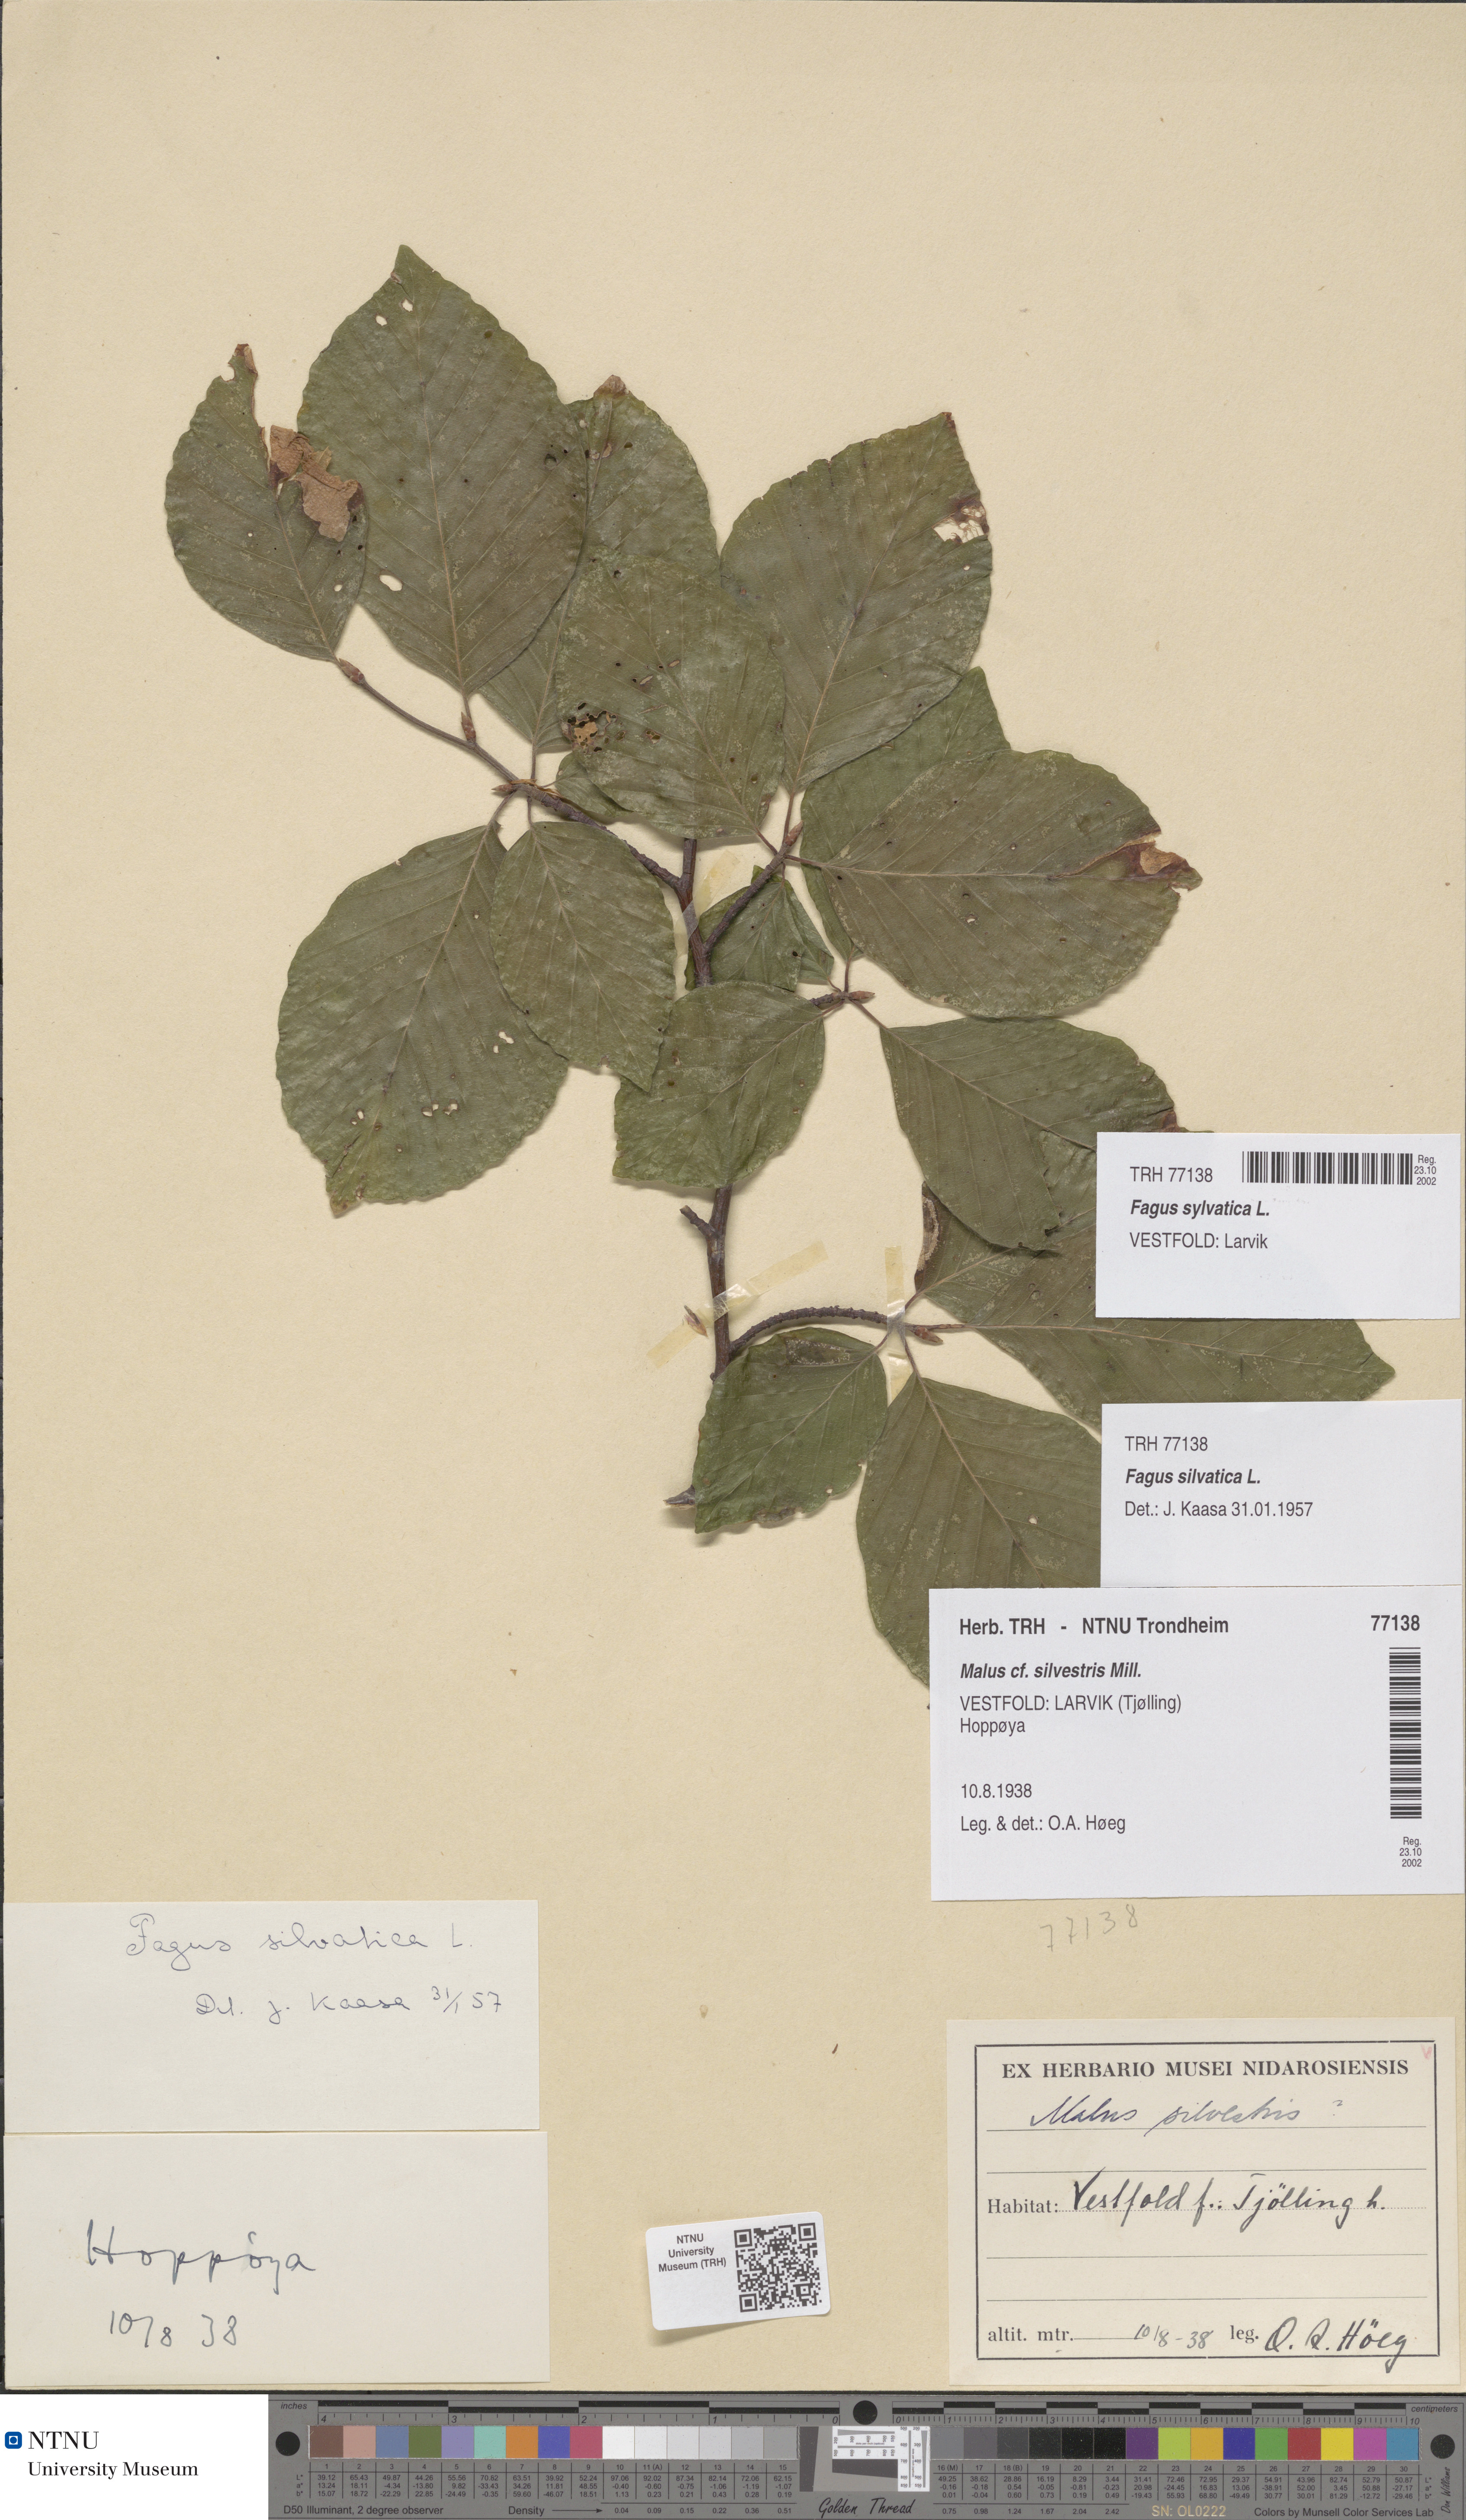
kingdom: Plantae
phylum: Tracheophyta
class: Magnoliopsida
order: Fagales
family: Fagaceae
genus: Fagus
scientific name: Fagus sylvatica
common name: Beech
